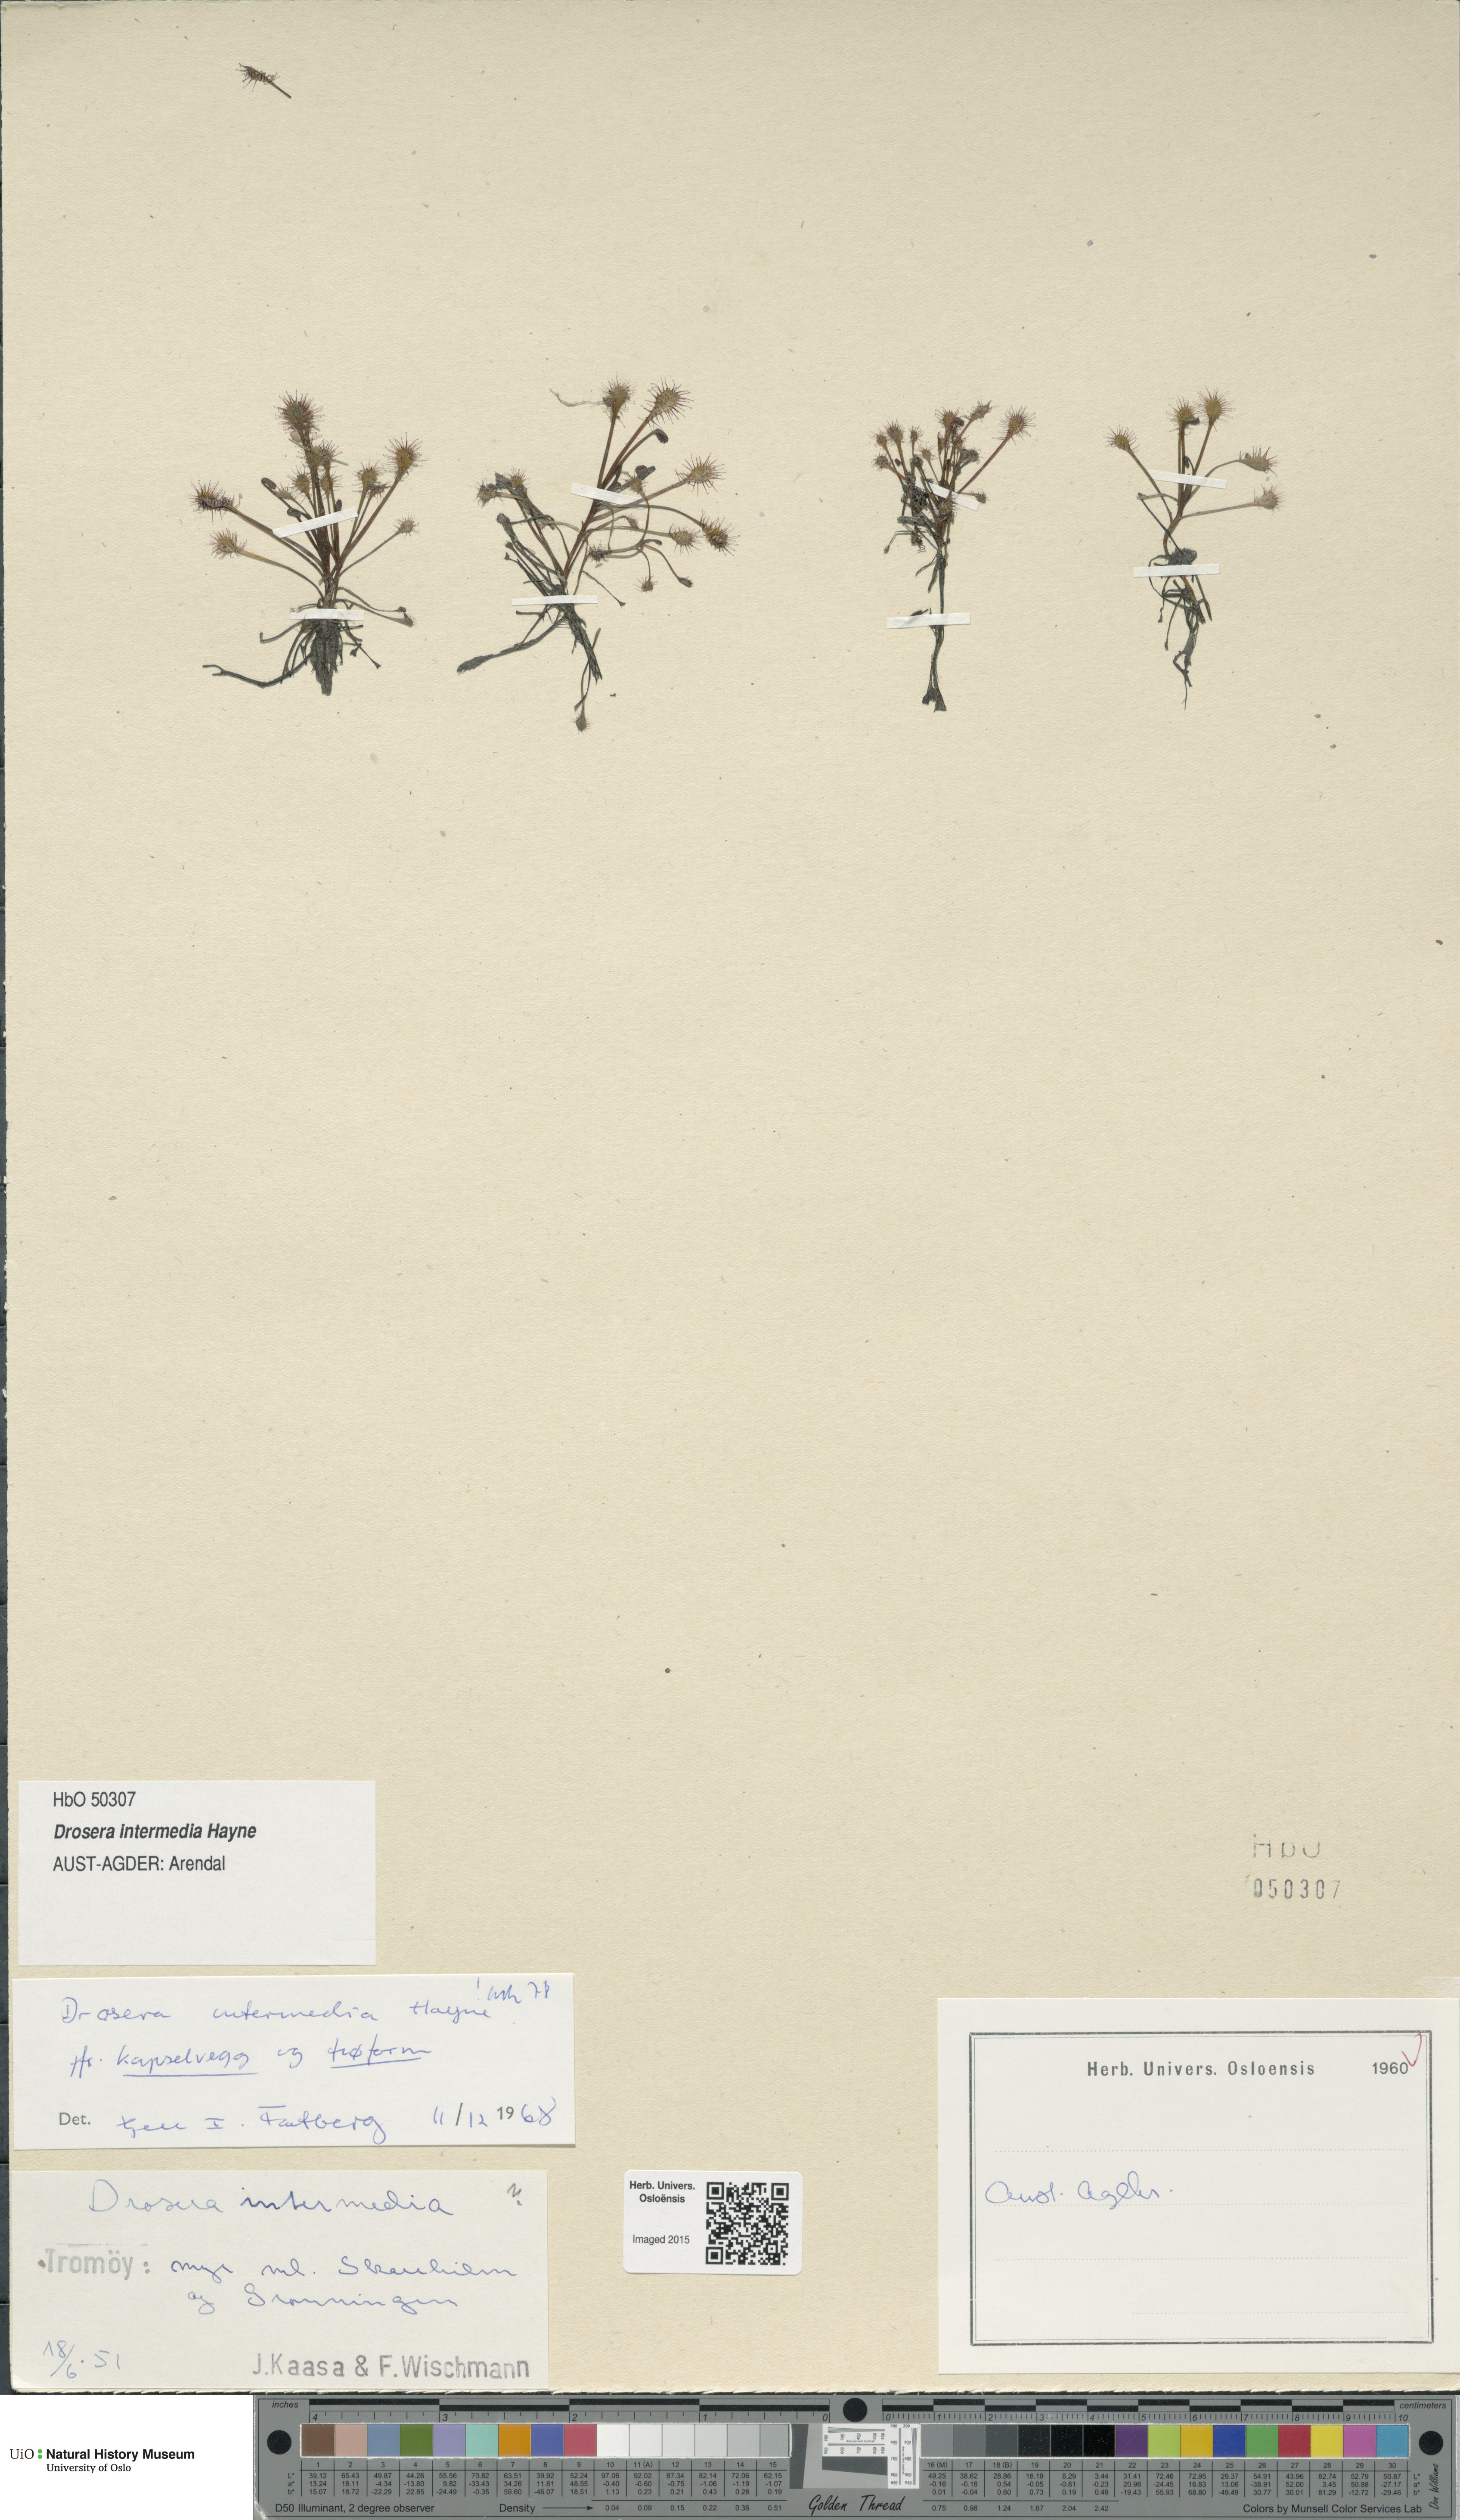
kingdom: Plantae
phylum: Tracheophyta
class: Magnoliopsida
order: Caryophyllales
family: Droseraceae
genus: Drosera
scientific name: Drosera intermedia
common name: Oblong-leaved sundew
